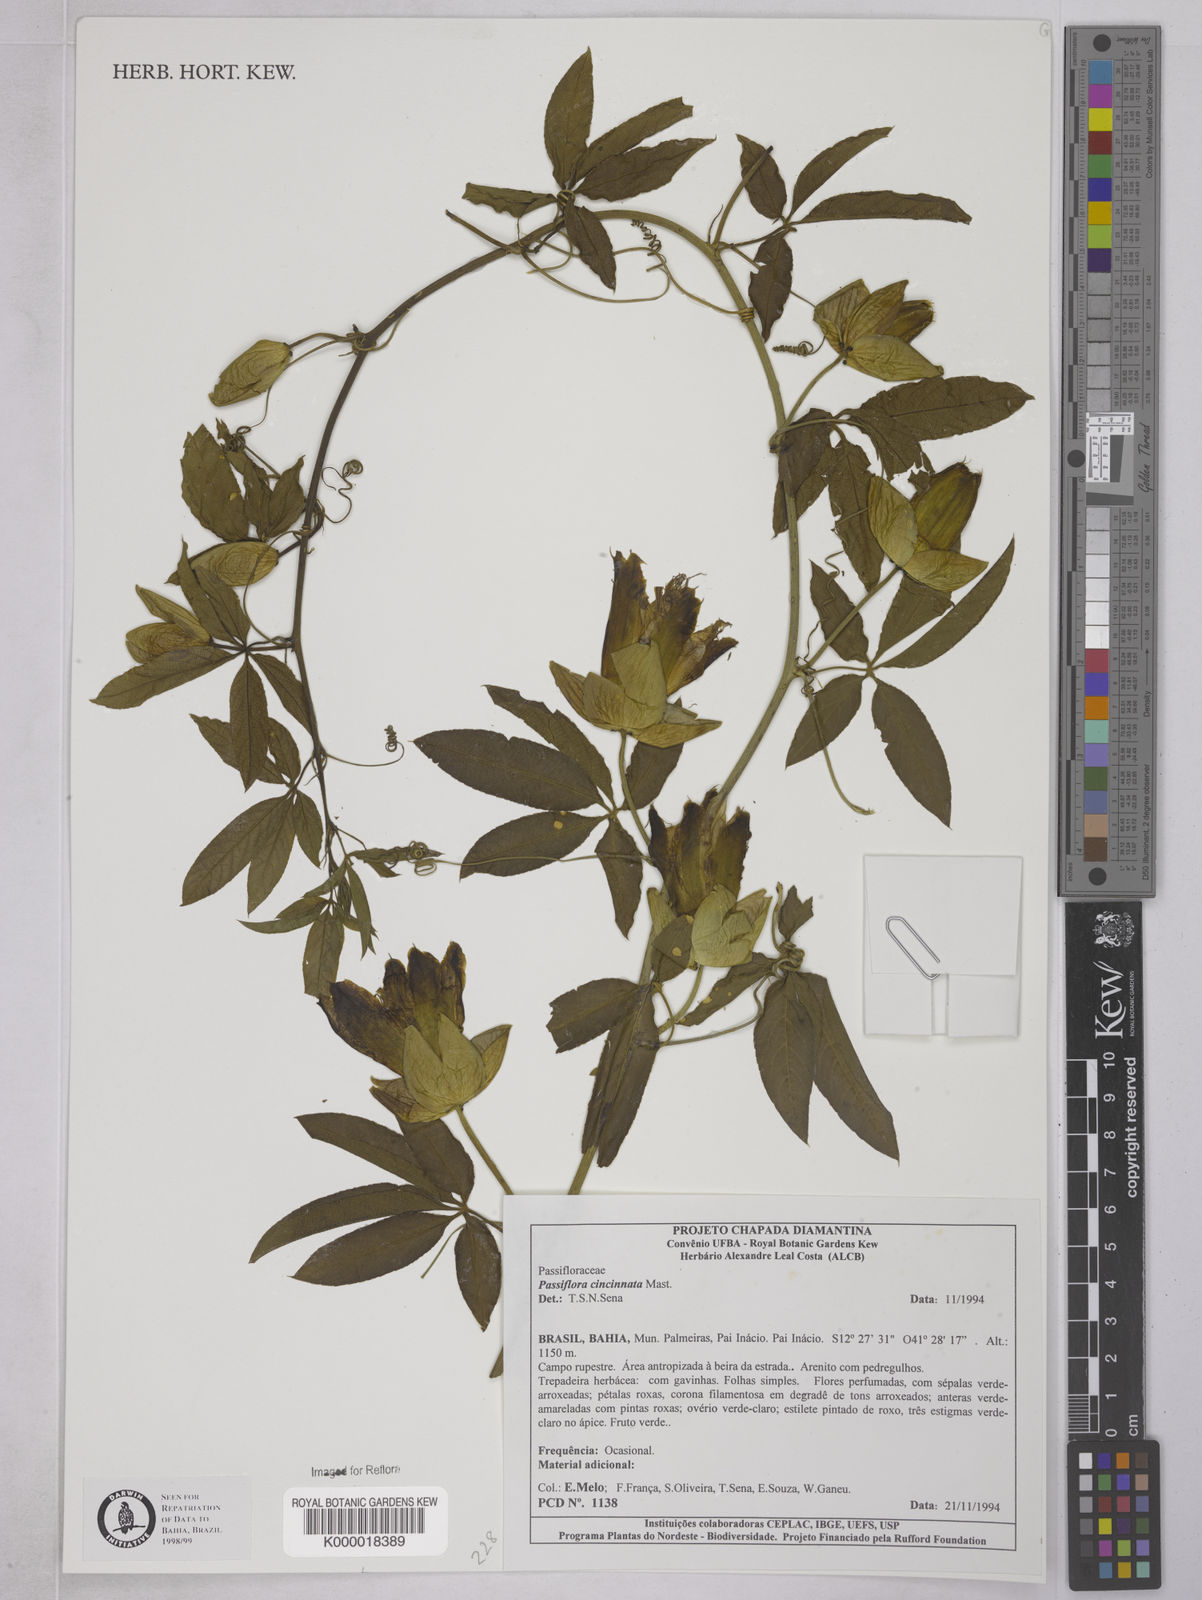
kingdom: Plantae
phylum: Tracheophyta
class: Magnoliopsida
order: Malpighiales
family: Passifloraceae
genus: Passiflora
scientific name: Passiflora cincinnata
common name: Crato passionvine
